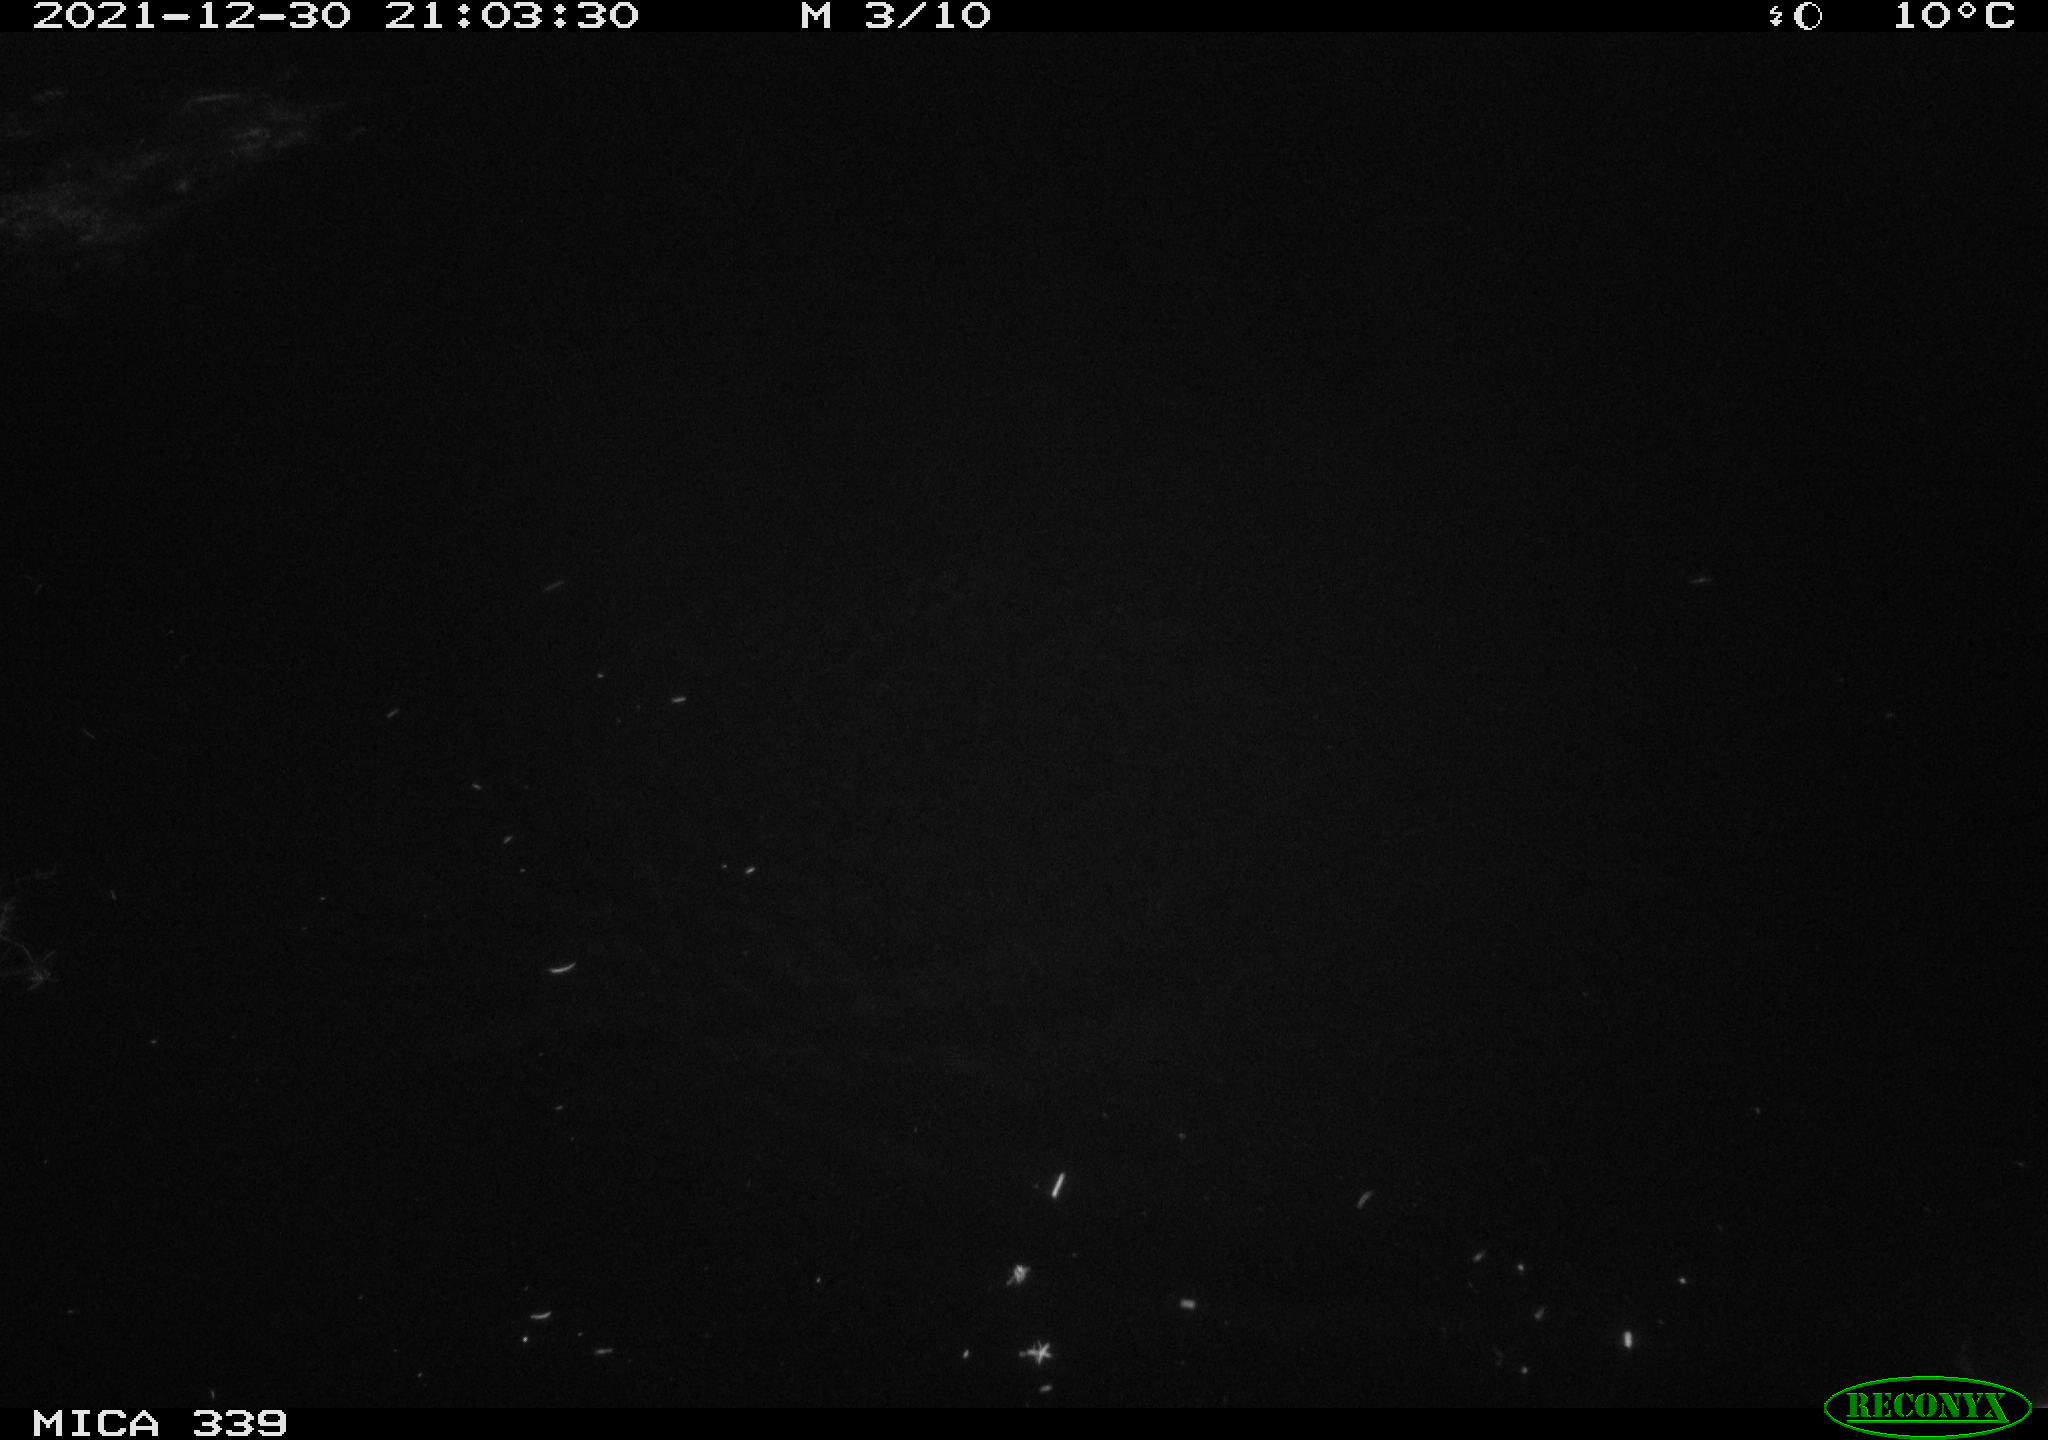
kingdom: Animalia
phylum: Chordata
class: Mammalia
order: Rodentia
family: Muridae
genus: Rattus
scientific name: Rattus norvegicus
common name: Brown rat
